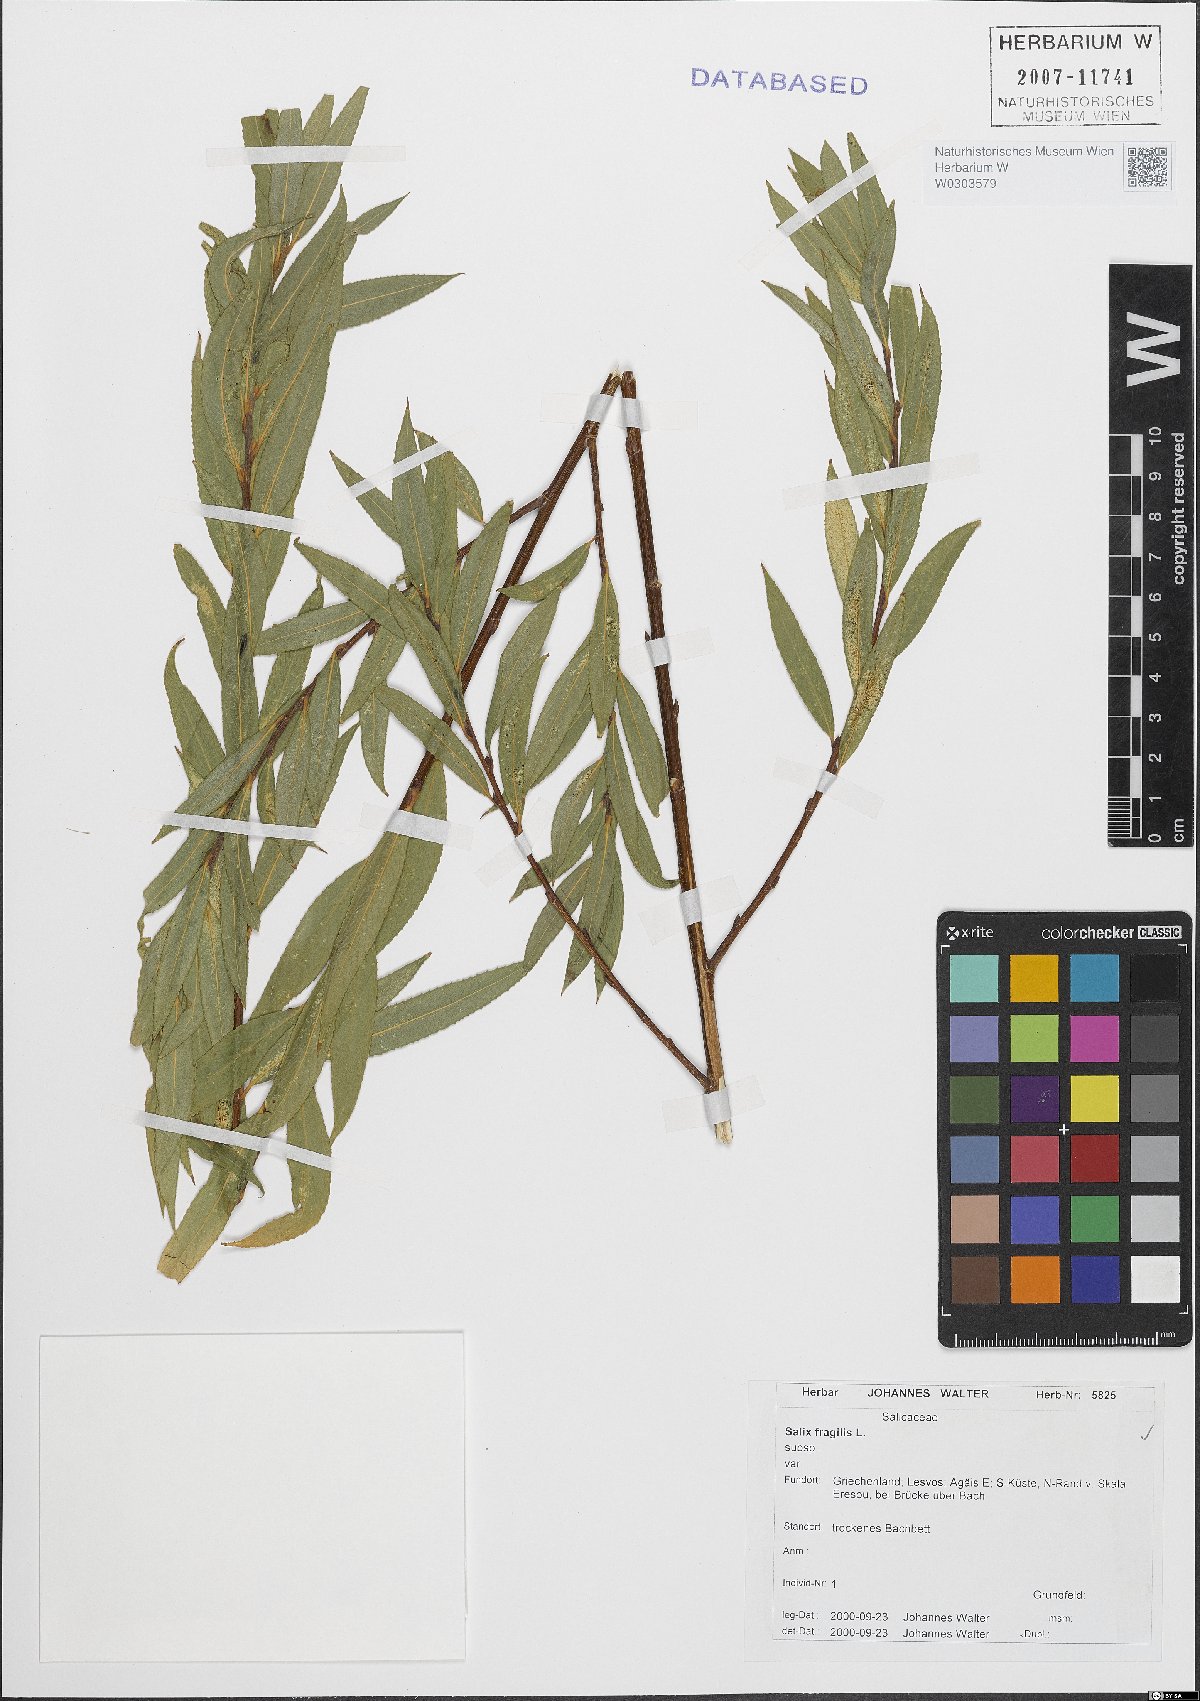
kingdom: Plantae
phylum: Tracheophyta
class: Magnoliopsida
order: Malpighiales
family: Salicaceae
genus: Salix
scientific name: Salix fragilis
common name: Crack willow
